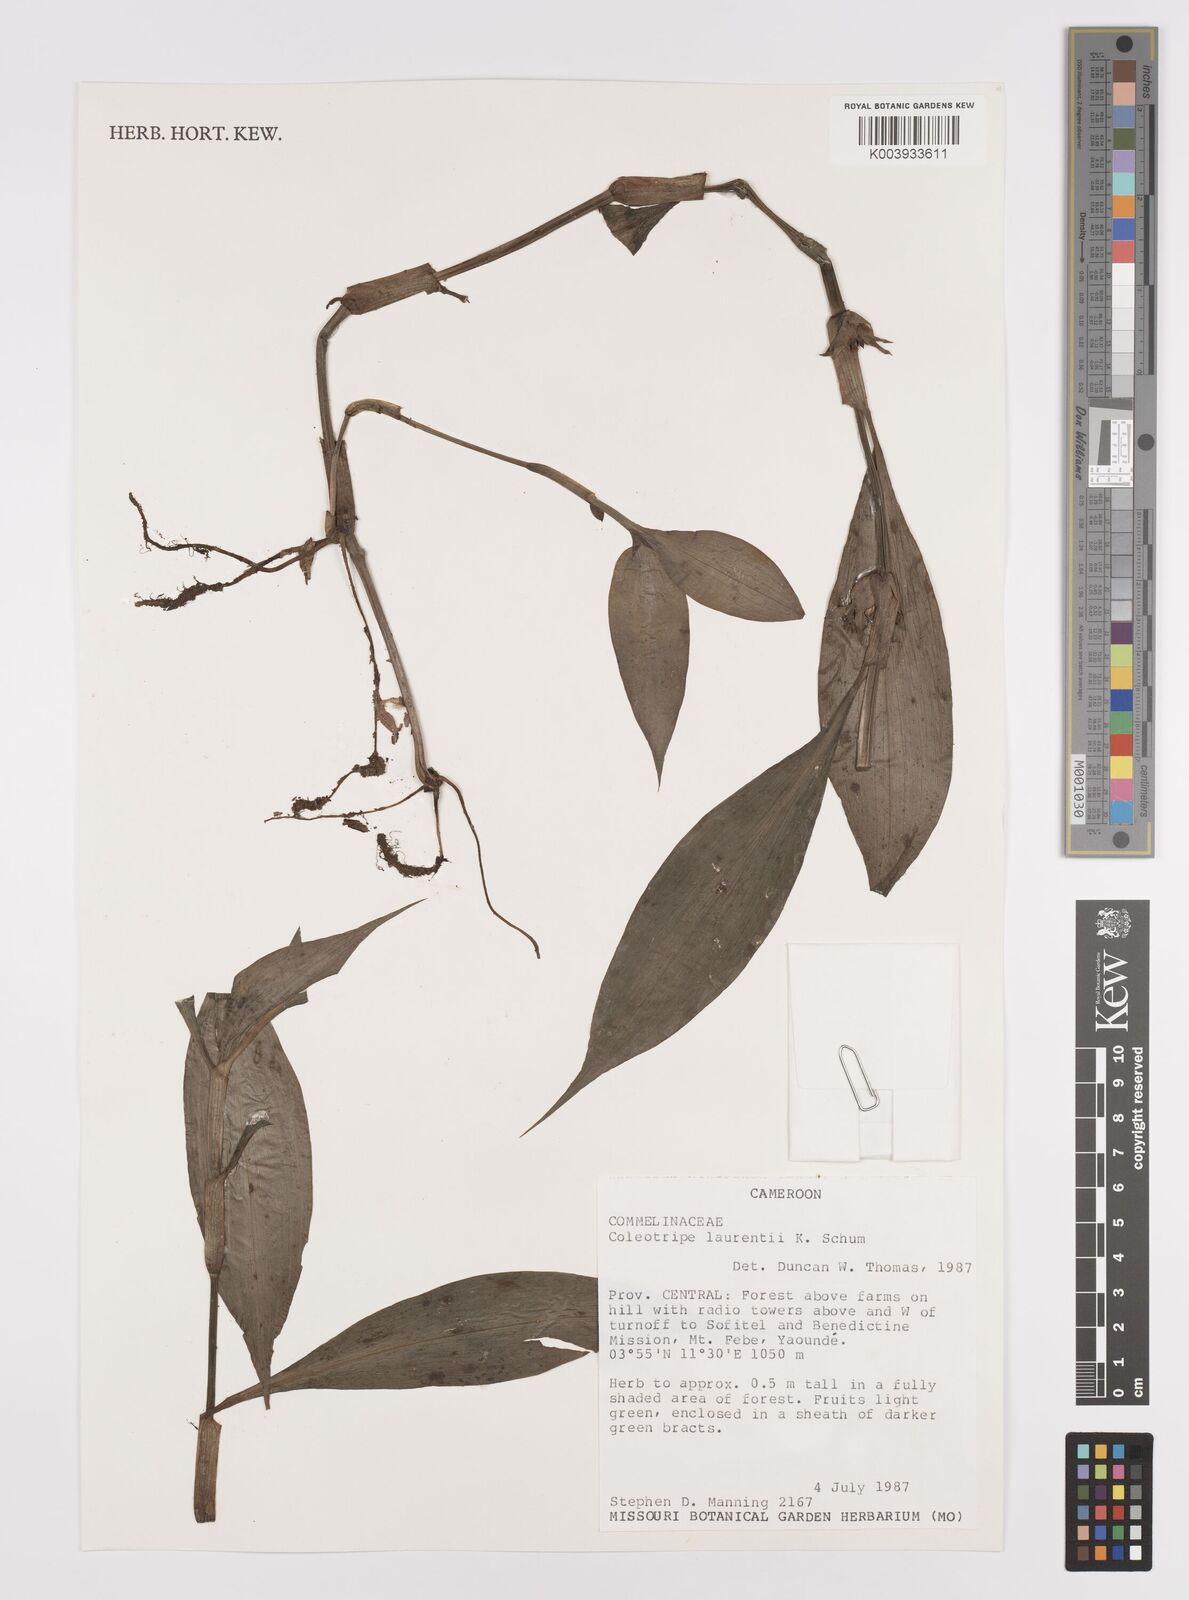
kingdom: Plantae
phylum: Tracheophyta
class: Liliopsida
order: Commelinales
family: Commelinaceae
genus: Coleotrype
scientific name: Coleotrype laurentii
